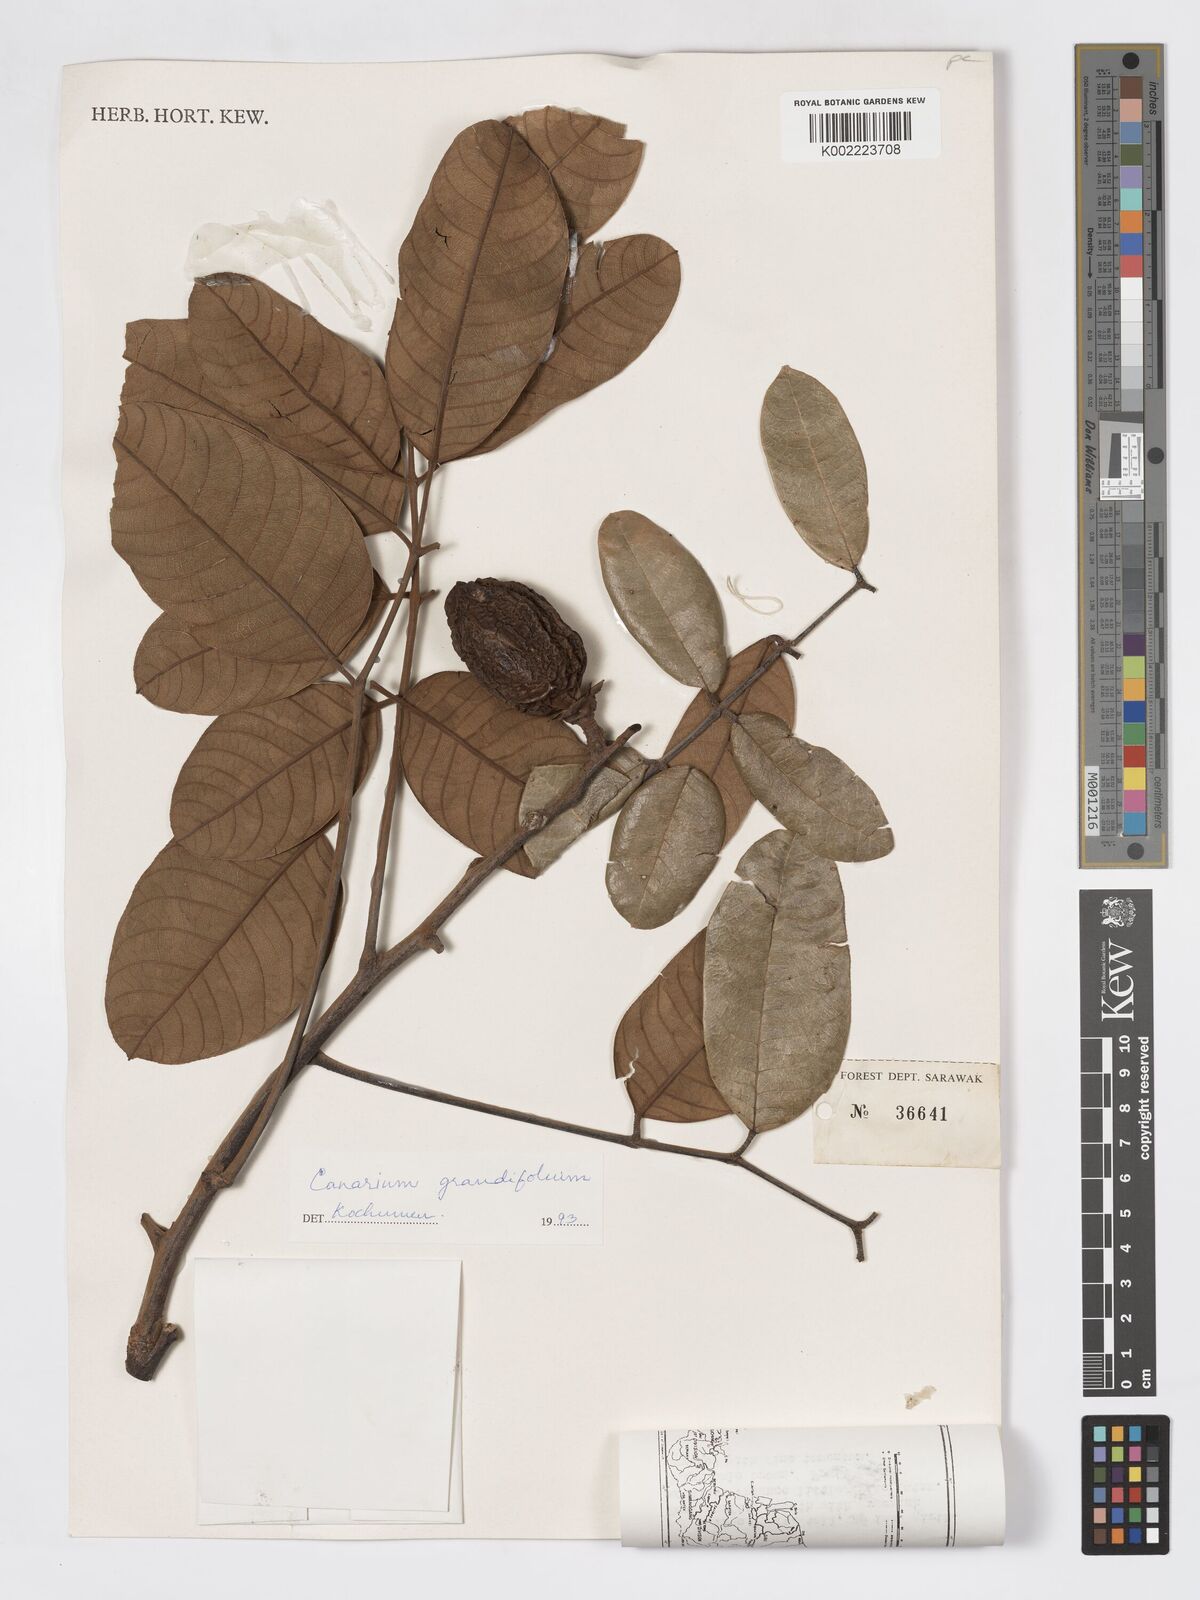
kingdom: Plantae
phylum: Tracheophyta
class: Magnoliopsida
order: Sapindales
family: Burseraceae
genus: Canarium
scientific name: Canarium grandifolium
